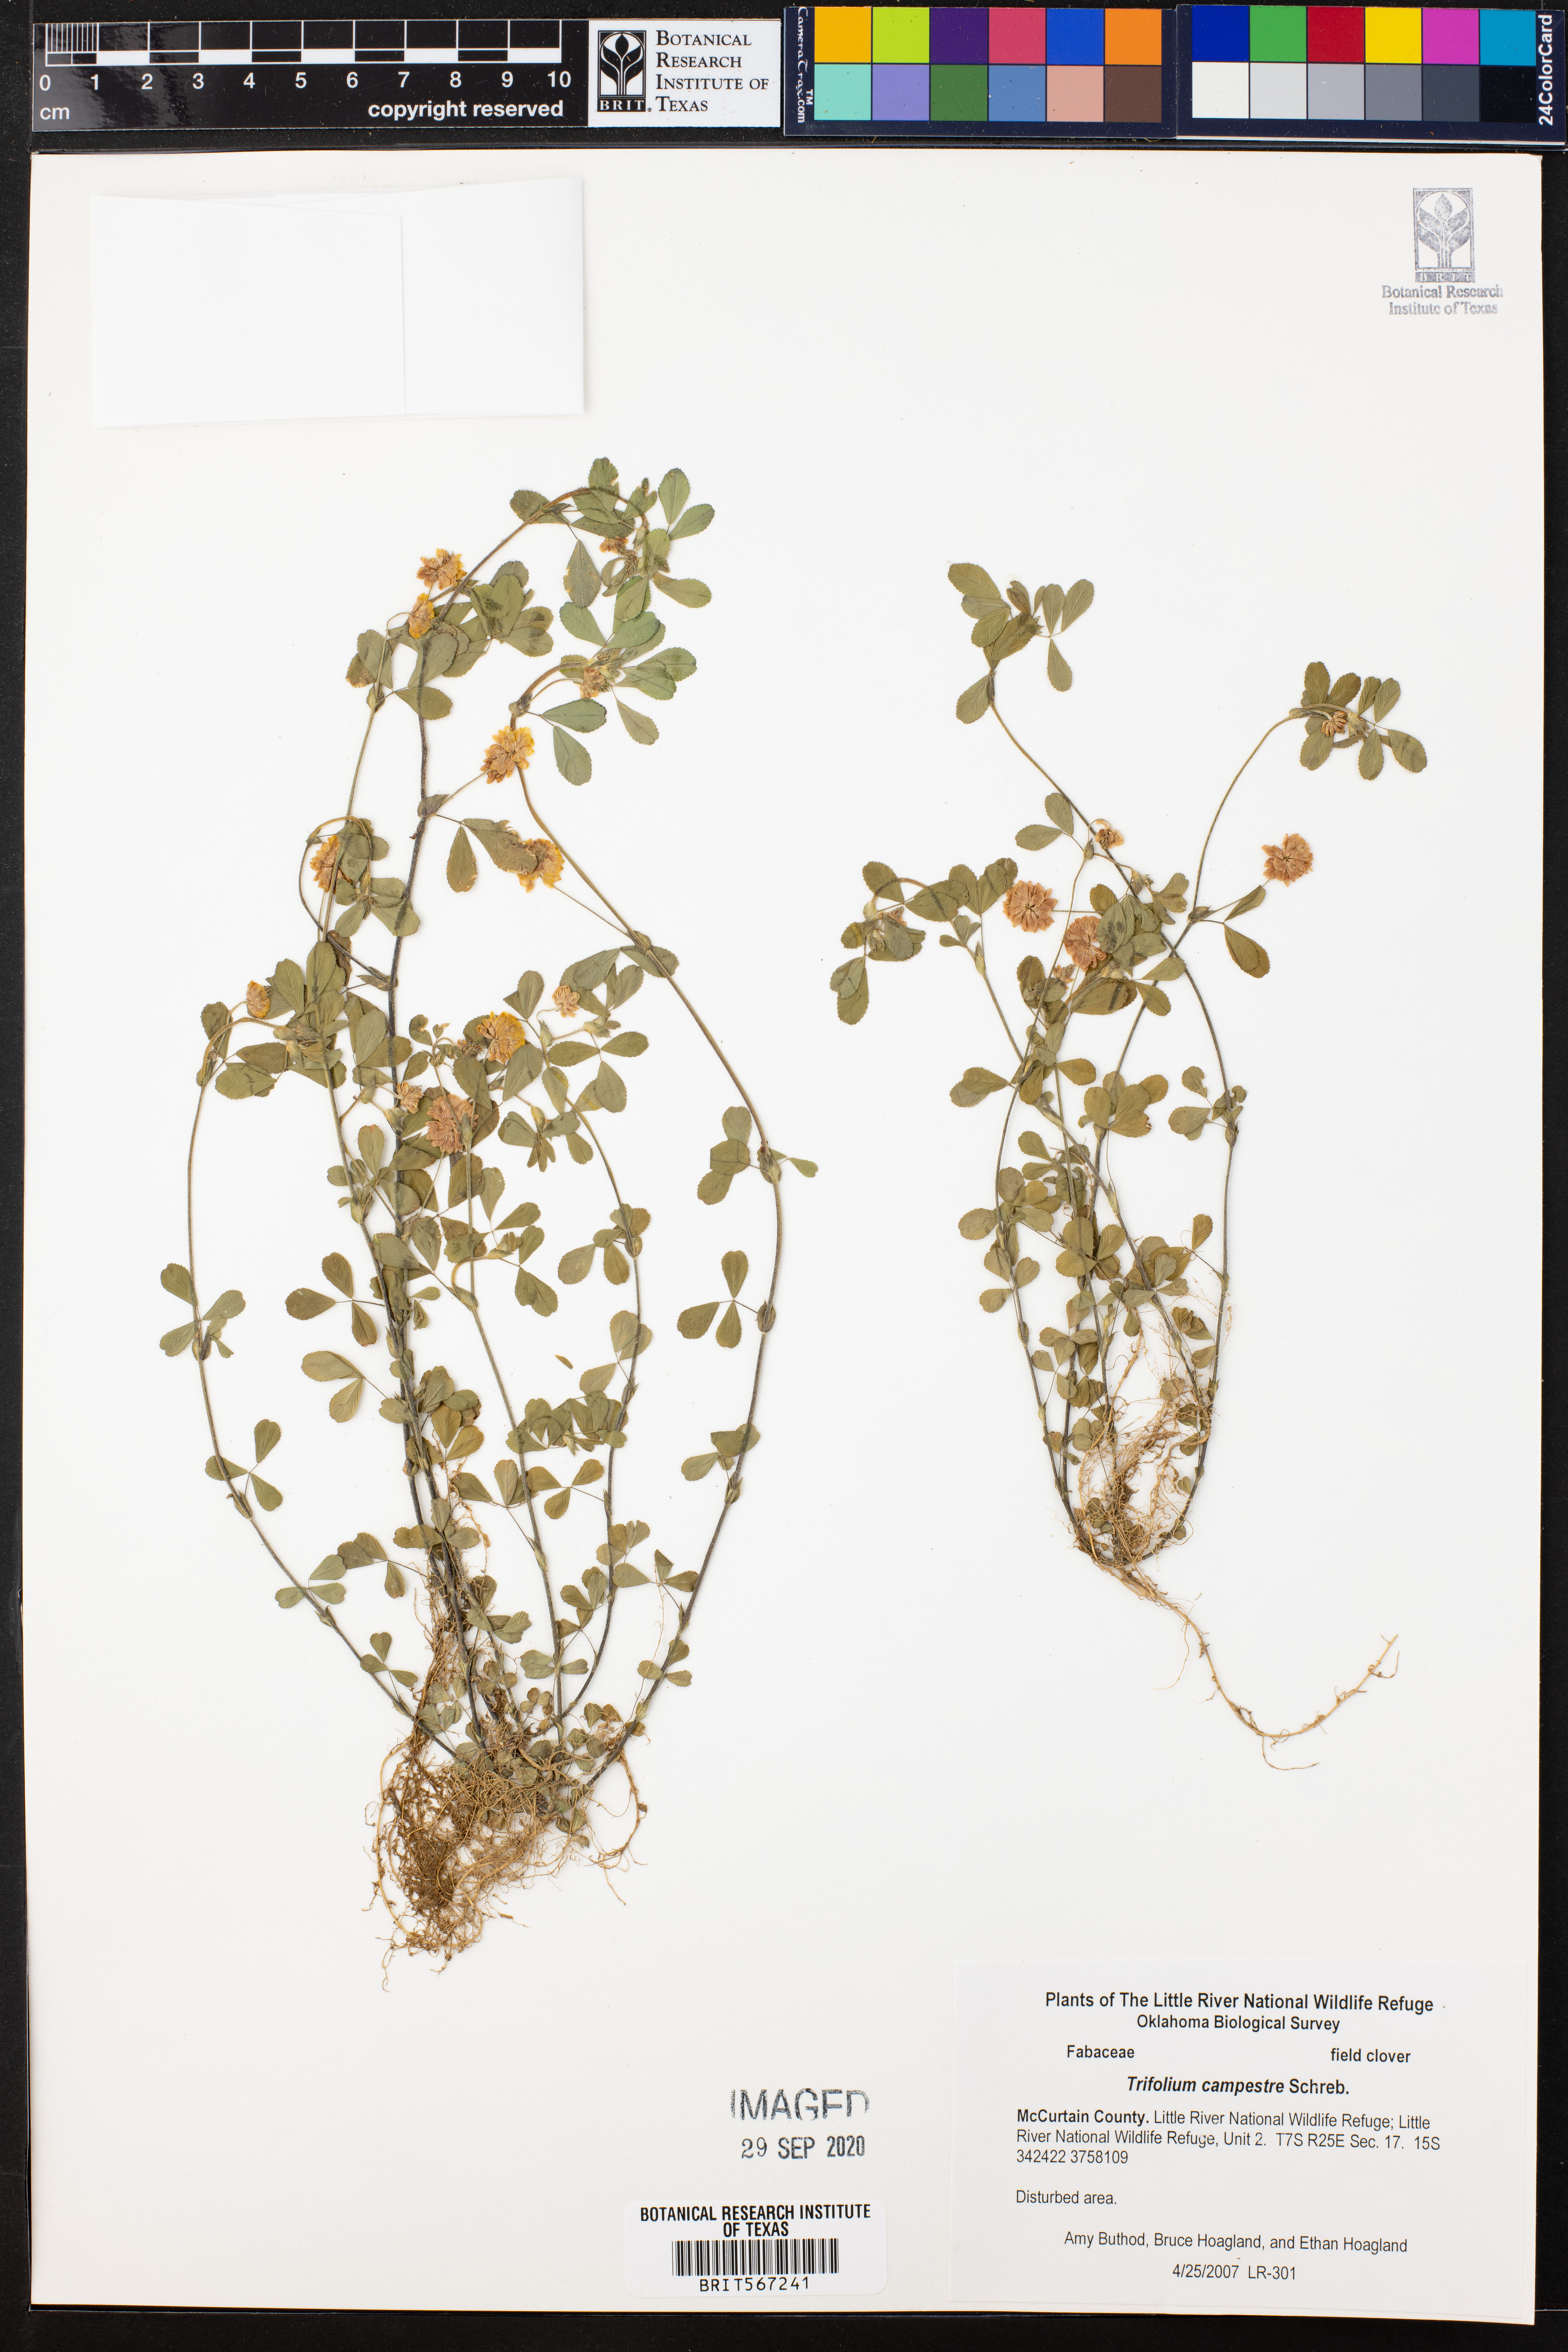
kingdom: Plantae
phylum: Tracheophyta
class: Magnoliopsida
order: Fabales
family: Fabaceae
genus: Trifolium
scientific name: Trifolium campestre
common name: Field clover
